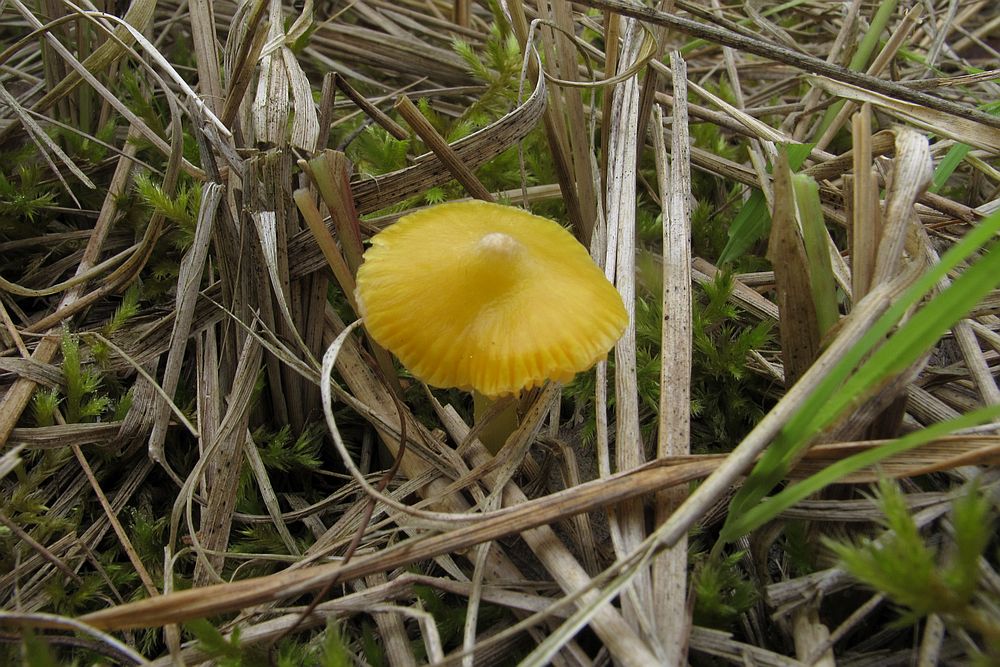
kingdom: Fungi
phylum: Basidiomycota
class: Agaricomycetes
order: Agaricales
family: Hygrophoraceae
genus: Hygrocybe
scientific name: Hygrocybe acutoconica
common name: spidspuklet vokshat
